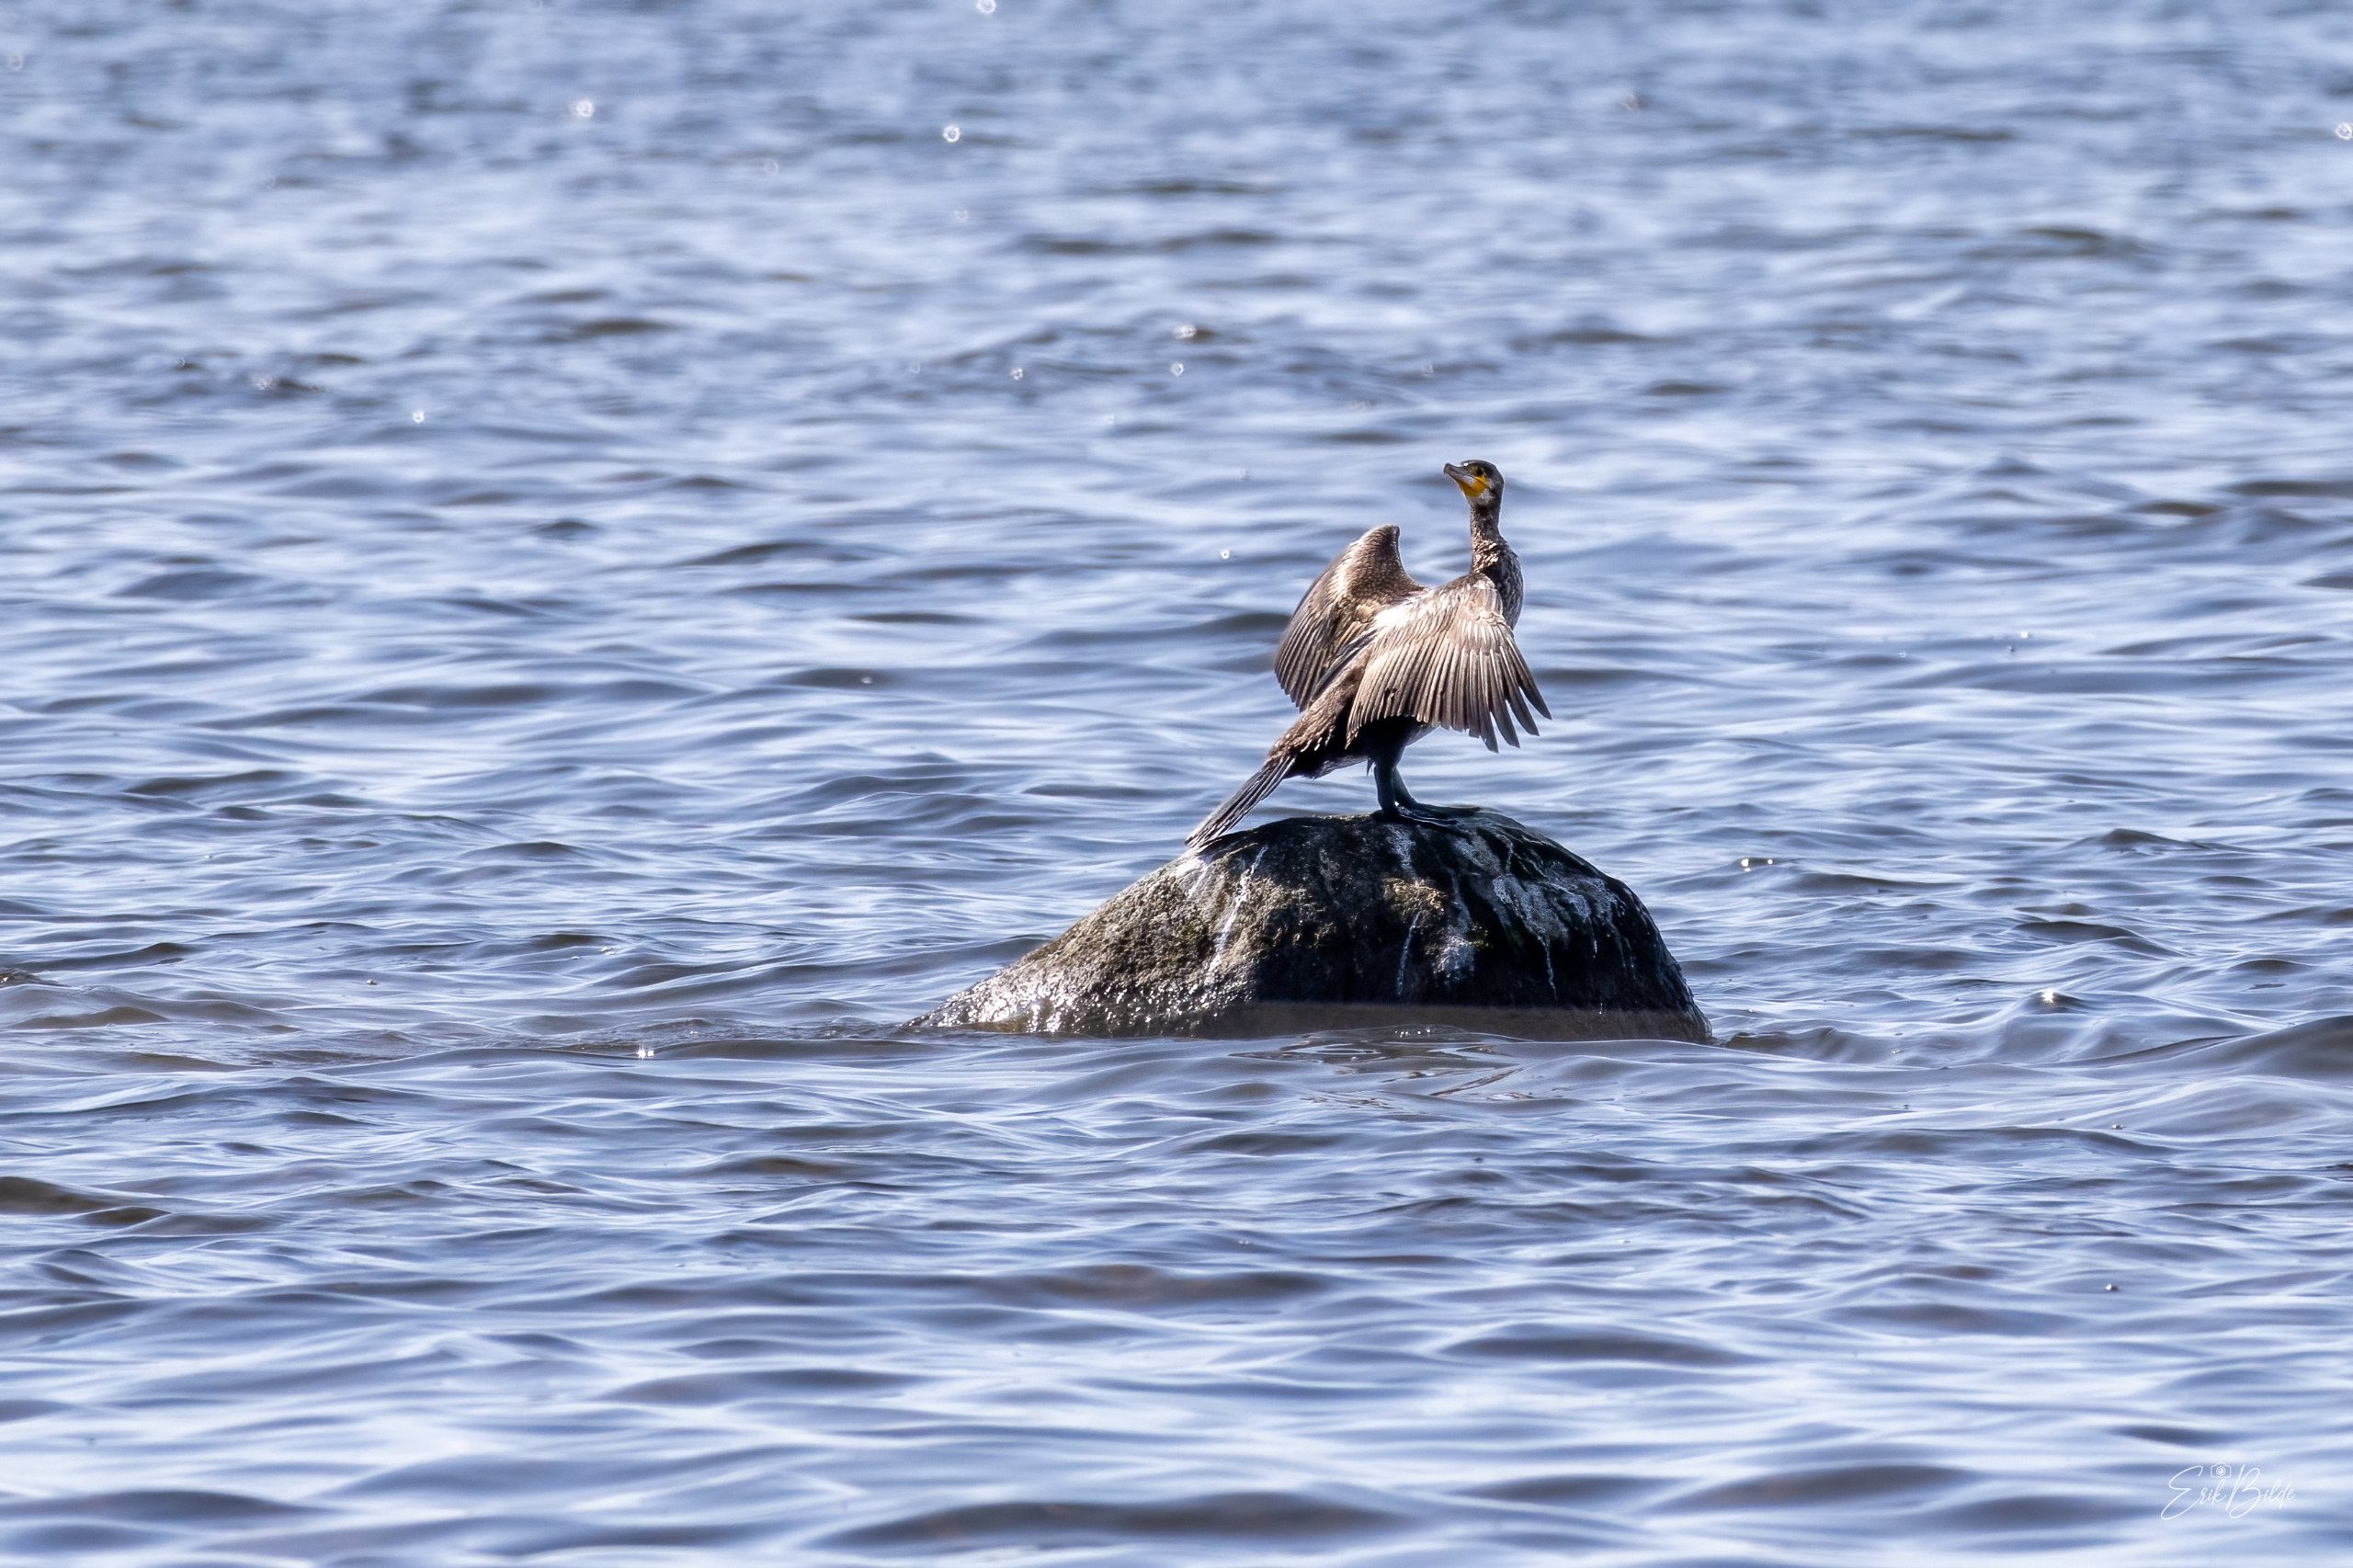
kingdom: Animalia
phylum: Chordata
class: Aves
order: Suliformes
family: Phalacrocoracidae
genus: Phalacrocorax
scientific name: Phalacrocorax carbo
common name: Skarv
